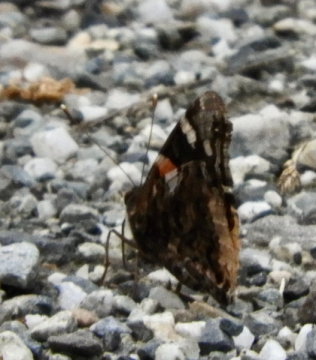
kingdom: Animalia
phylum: Arthropoda
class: Insecta
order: Lepidoptera
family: Nymphalidae
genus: Vanessa
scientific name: Vanessa atalanta
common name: Red Admiral
